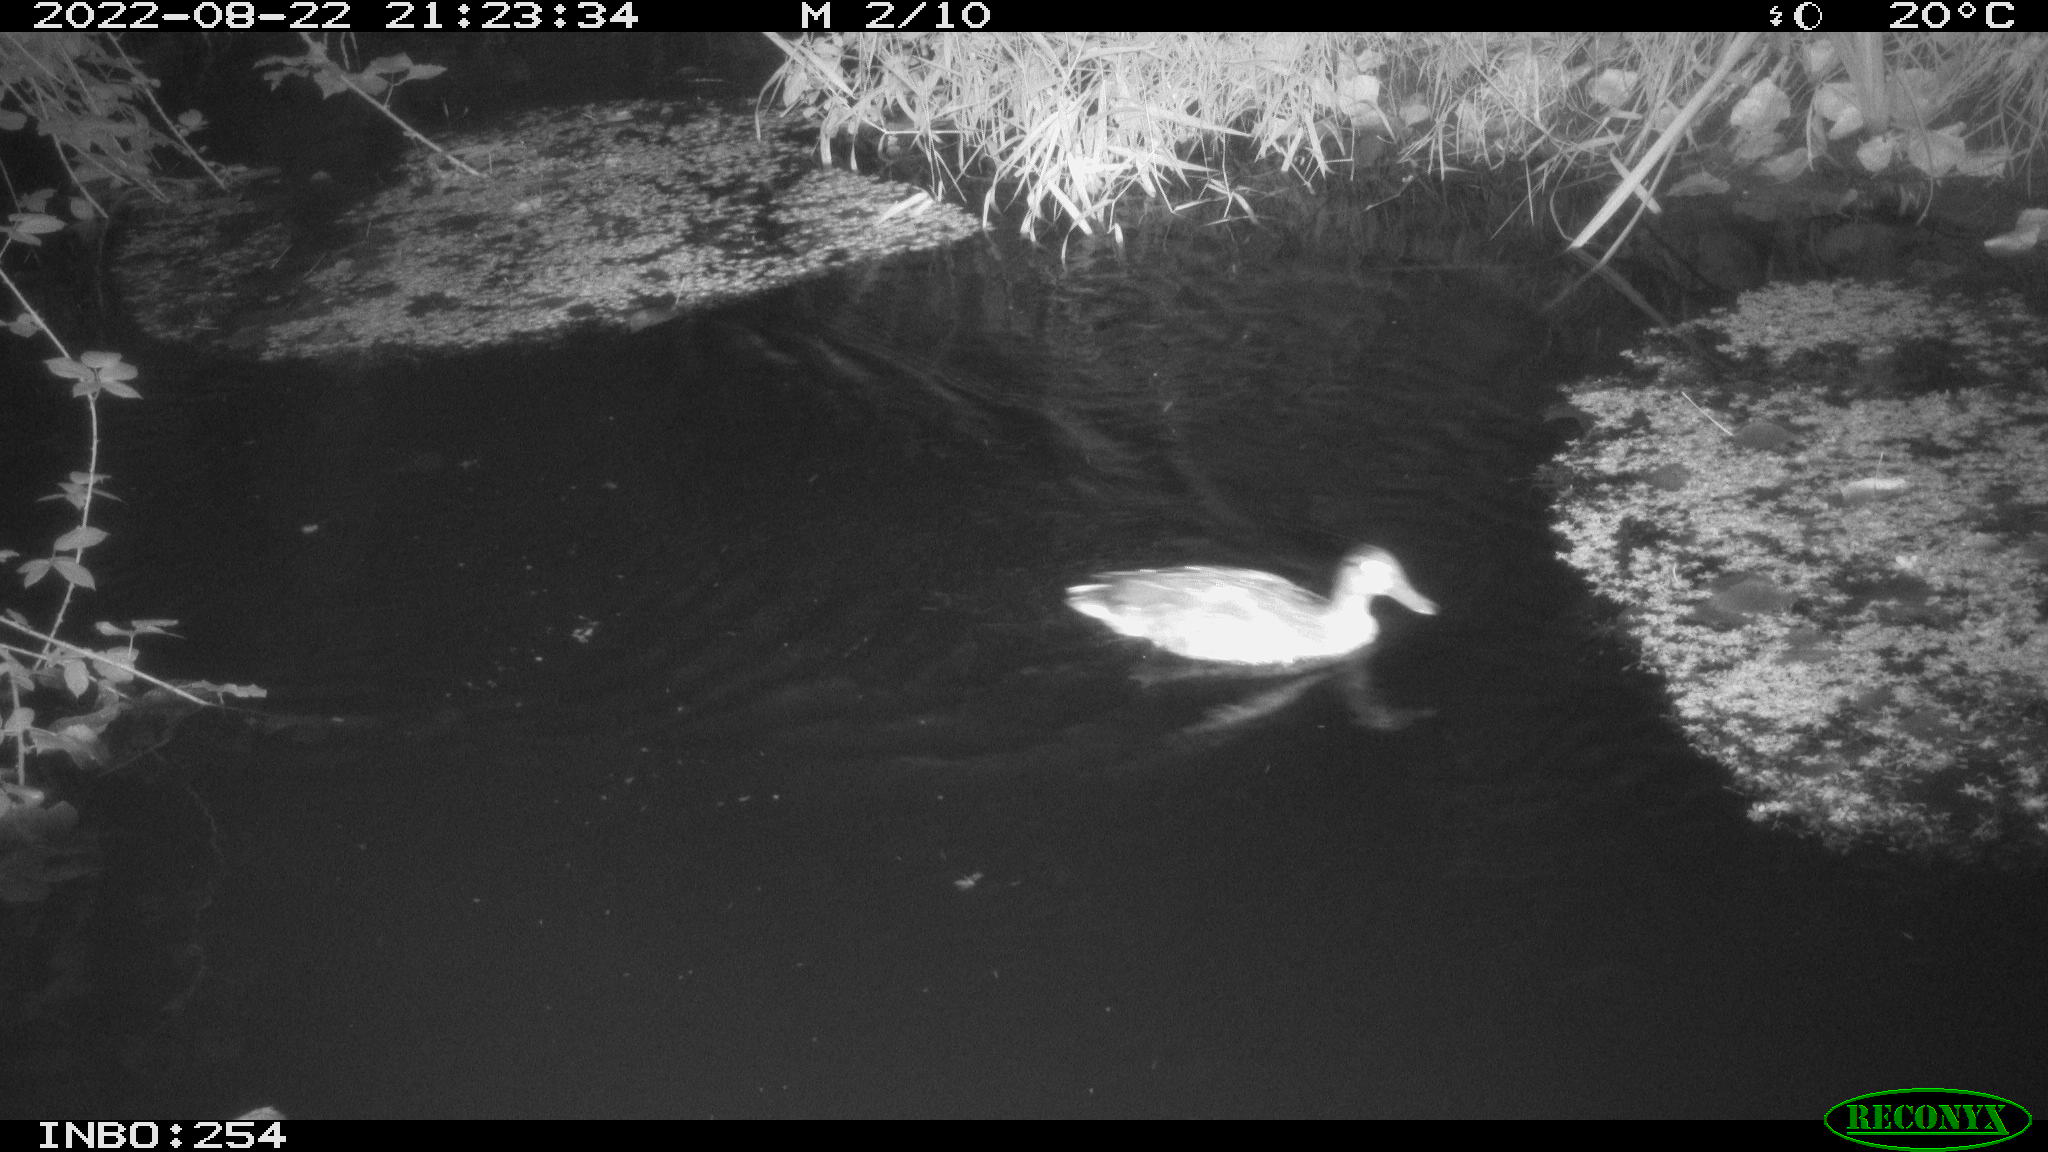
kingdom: Animalia
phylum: Chordata
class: Aves
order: Anseriformes
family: Anatidae
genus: Anas
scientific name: Anas platyrhynchos
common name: Mallard
